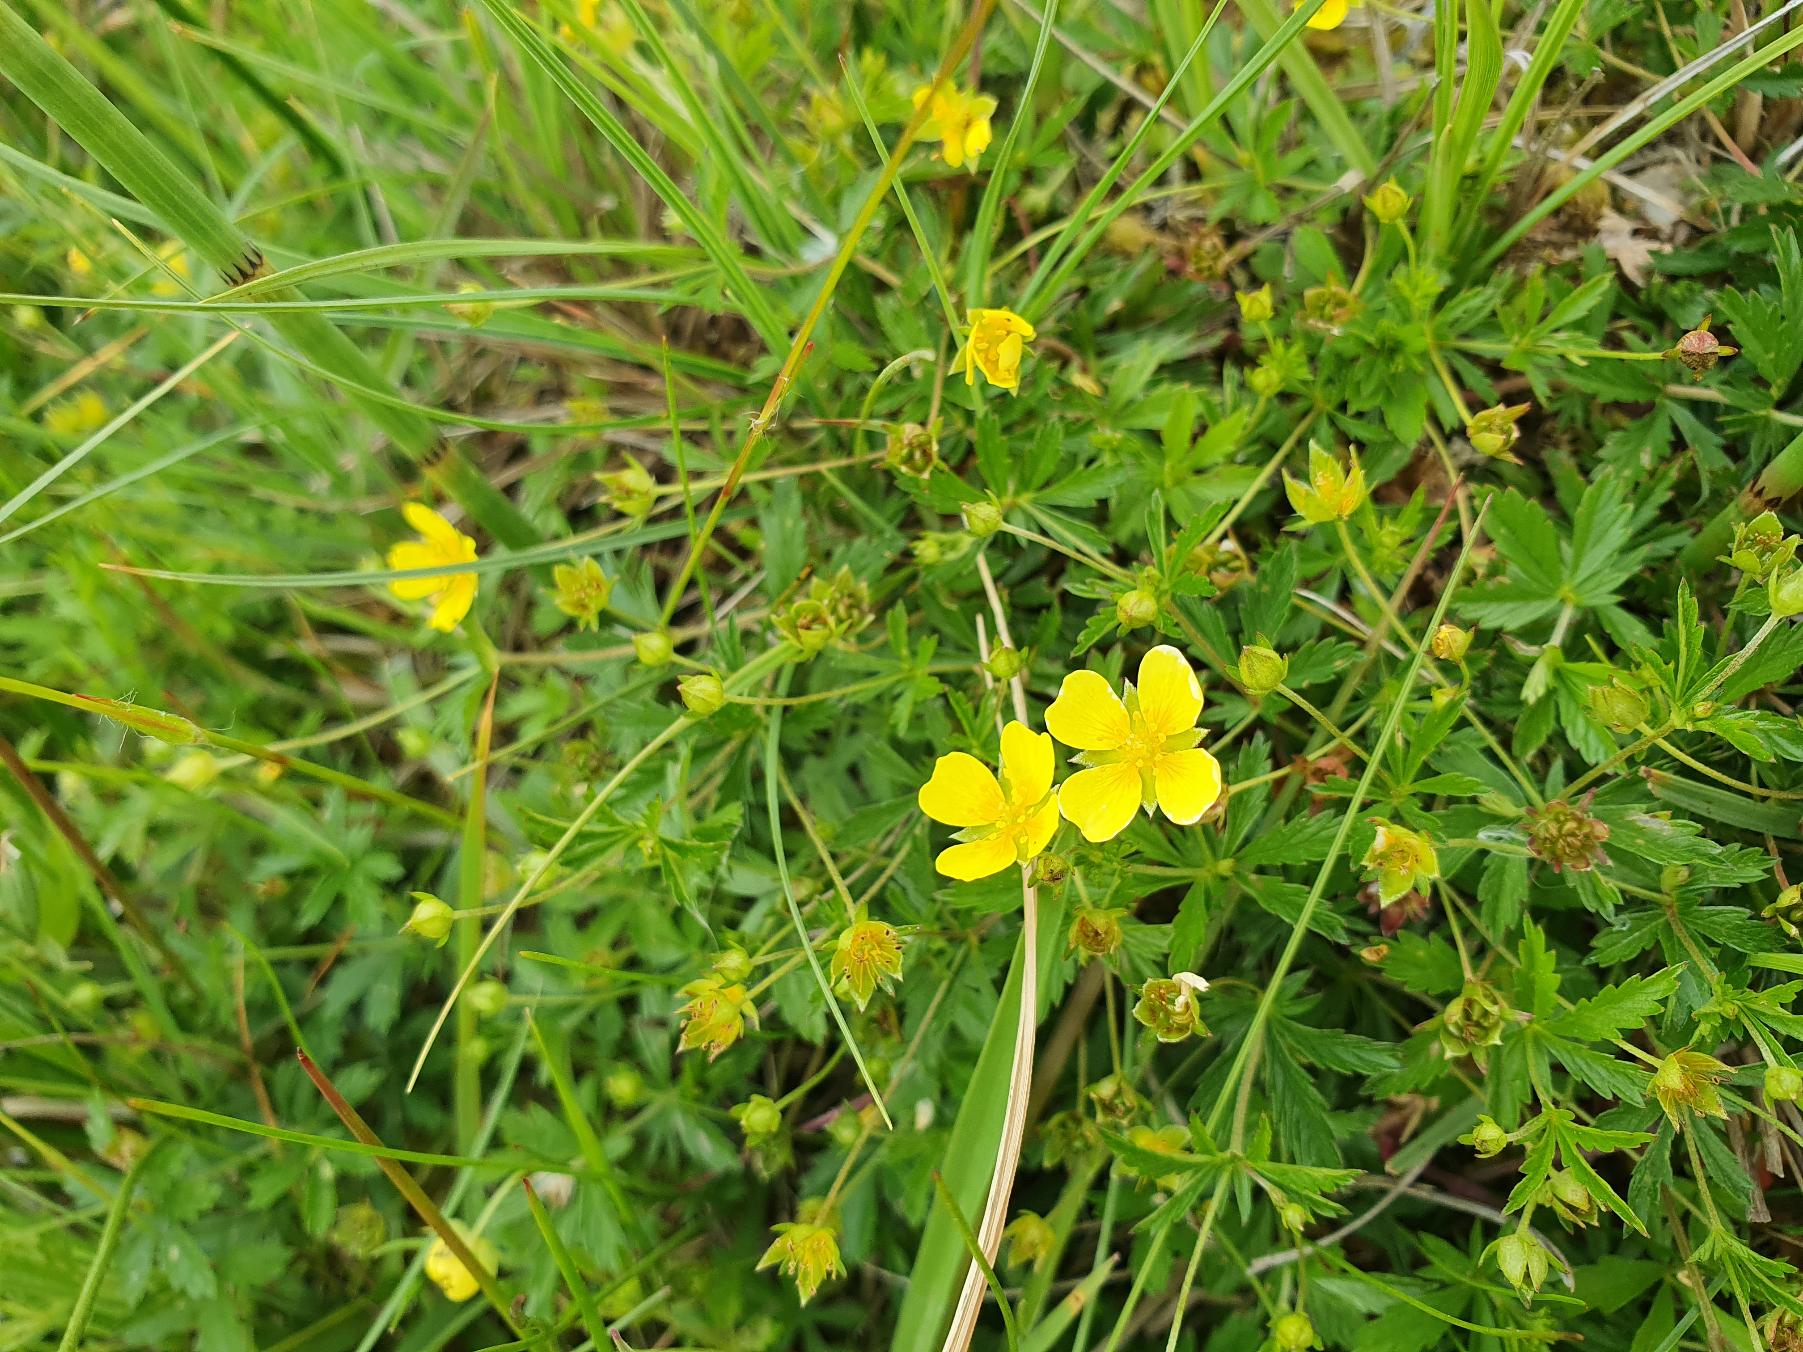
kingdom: Plantae
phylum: Tracheophyta
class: Magnoliopsida
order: Rosales
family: Rosaceae
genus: Potentilla
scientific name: Potentilla erecta
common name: Tormentil
